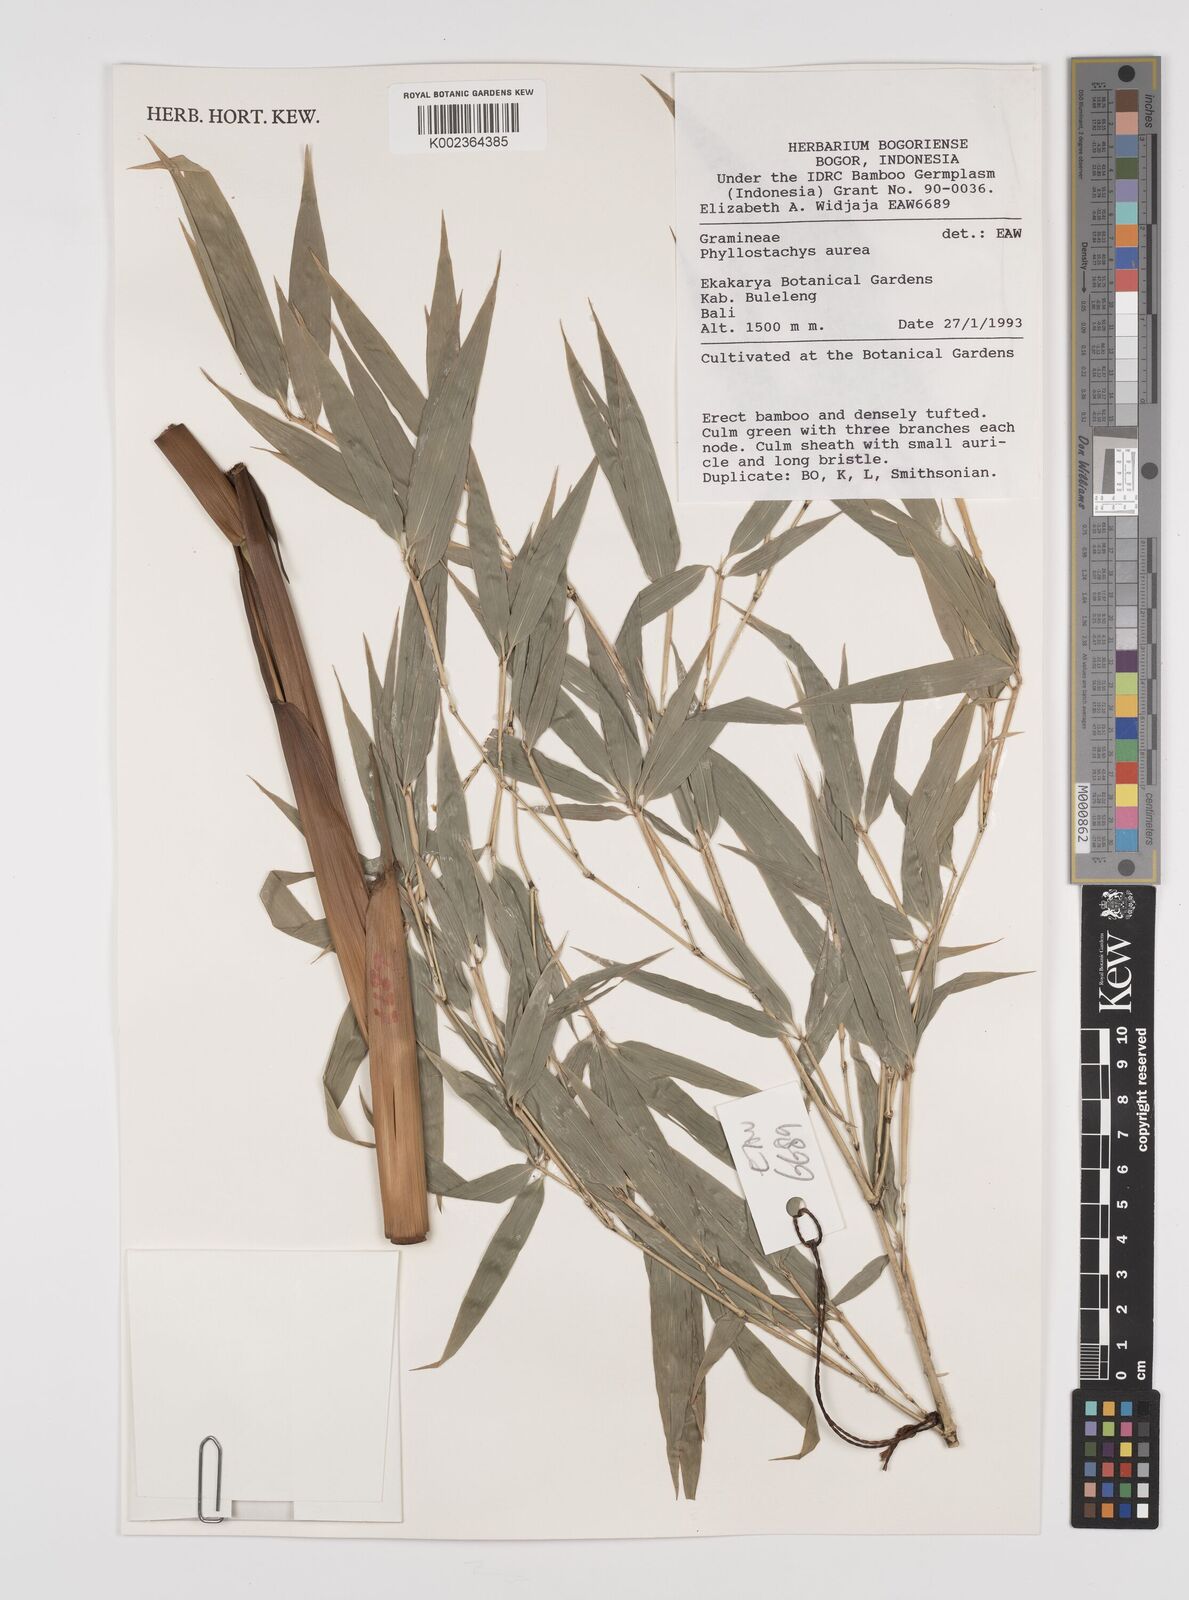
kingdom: Plantae
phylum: Tracheophyta
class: Liliopsida
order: Poales
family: Poaceae
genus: Phyllostachys
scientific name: Phyllostachys
